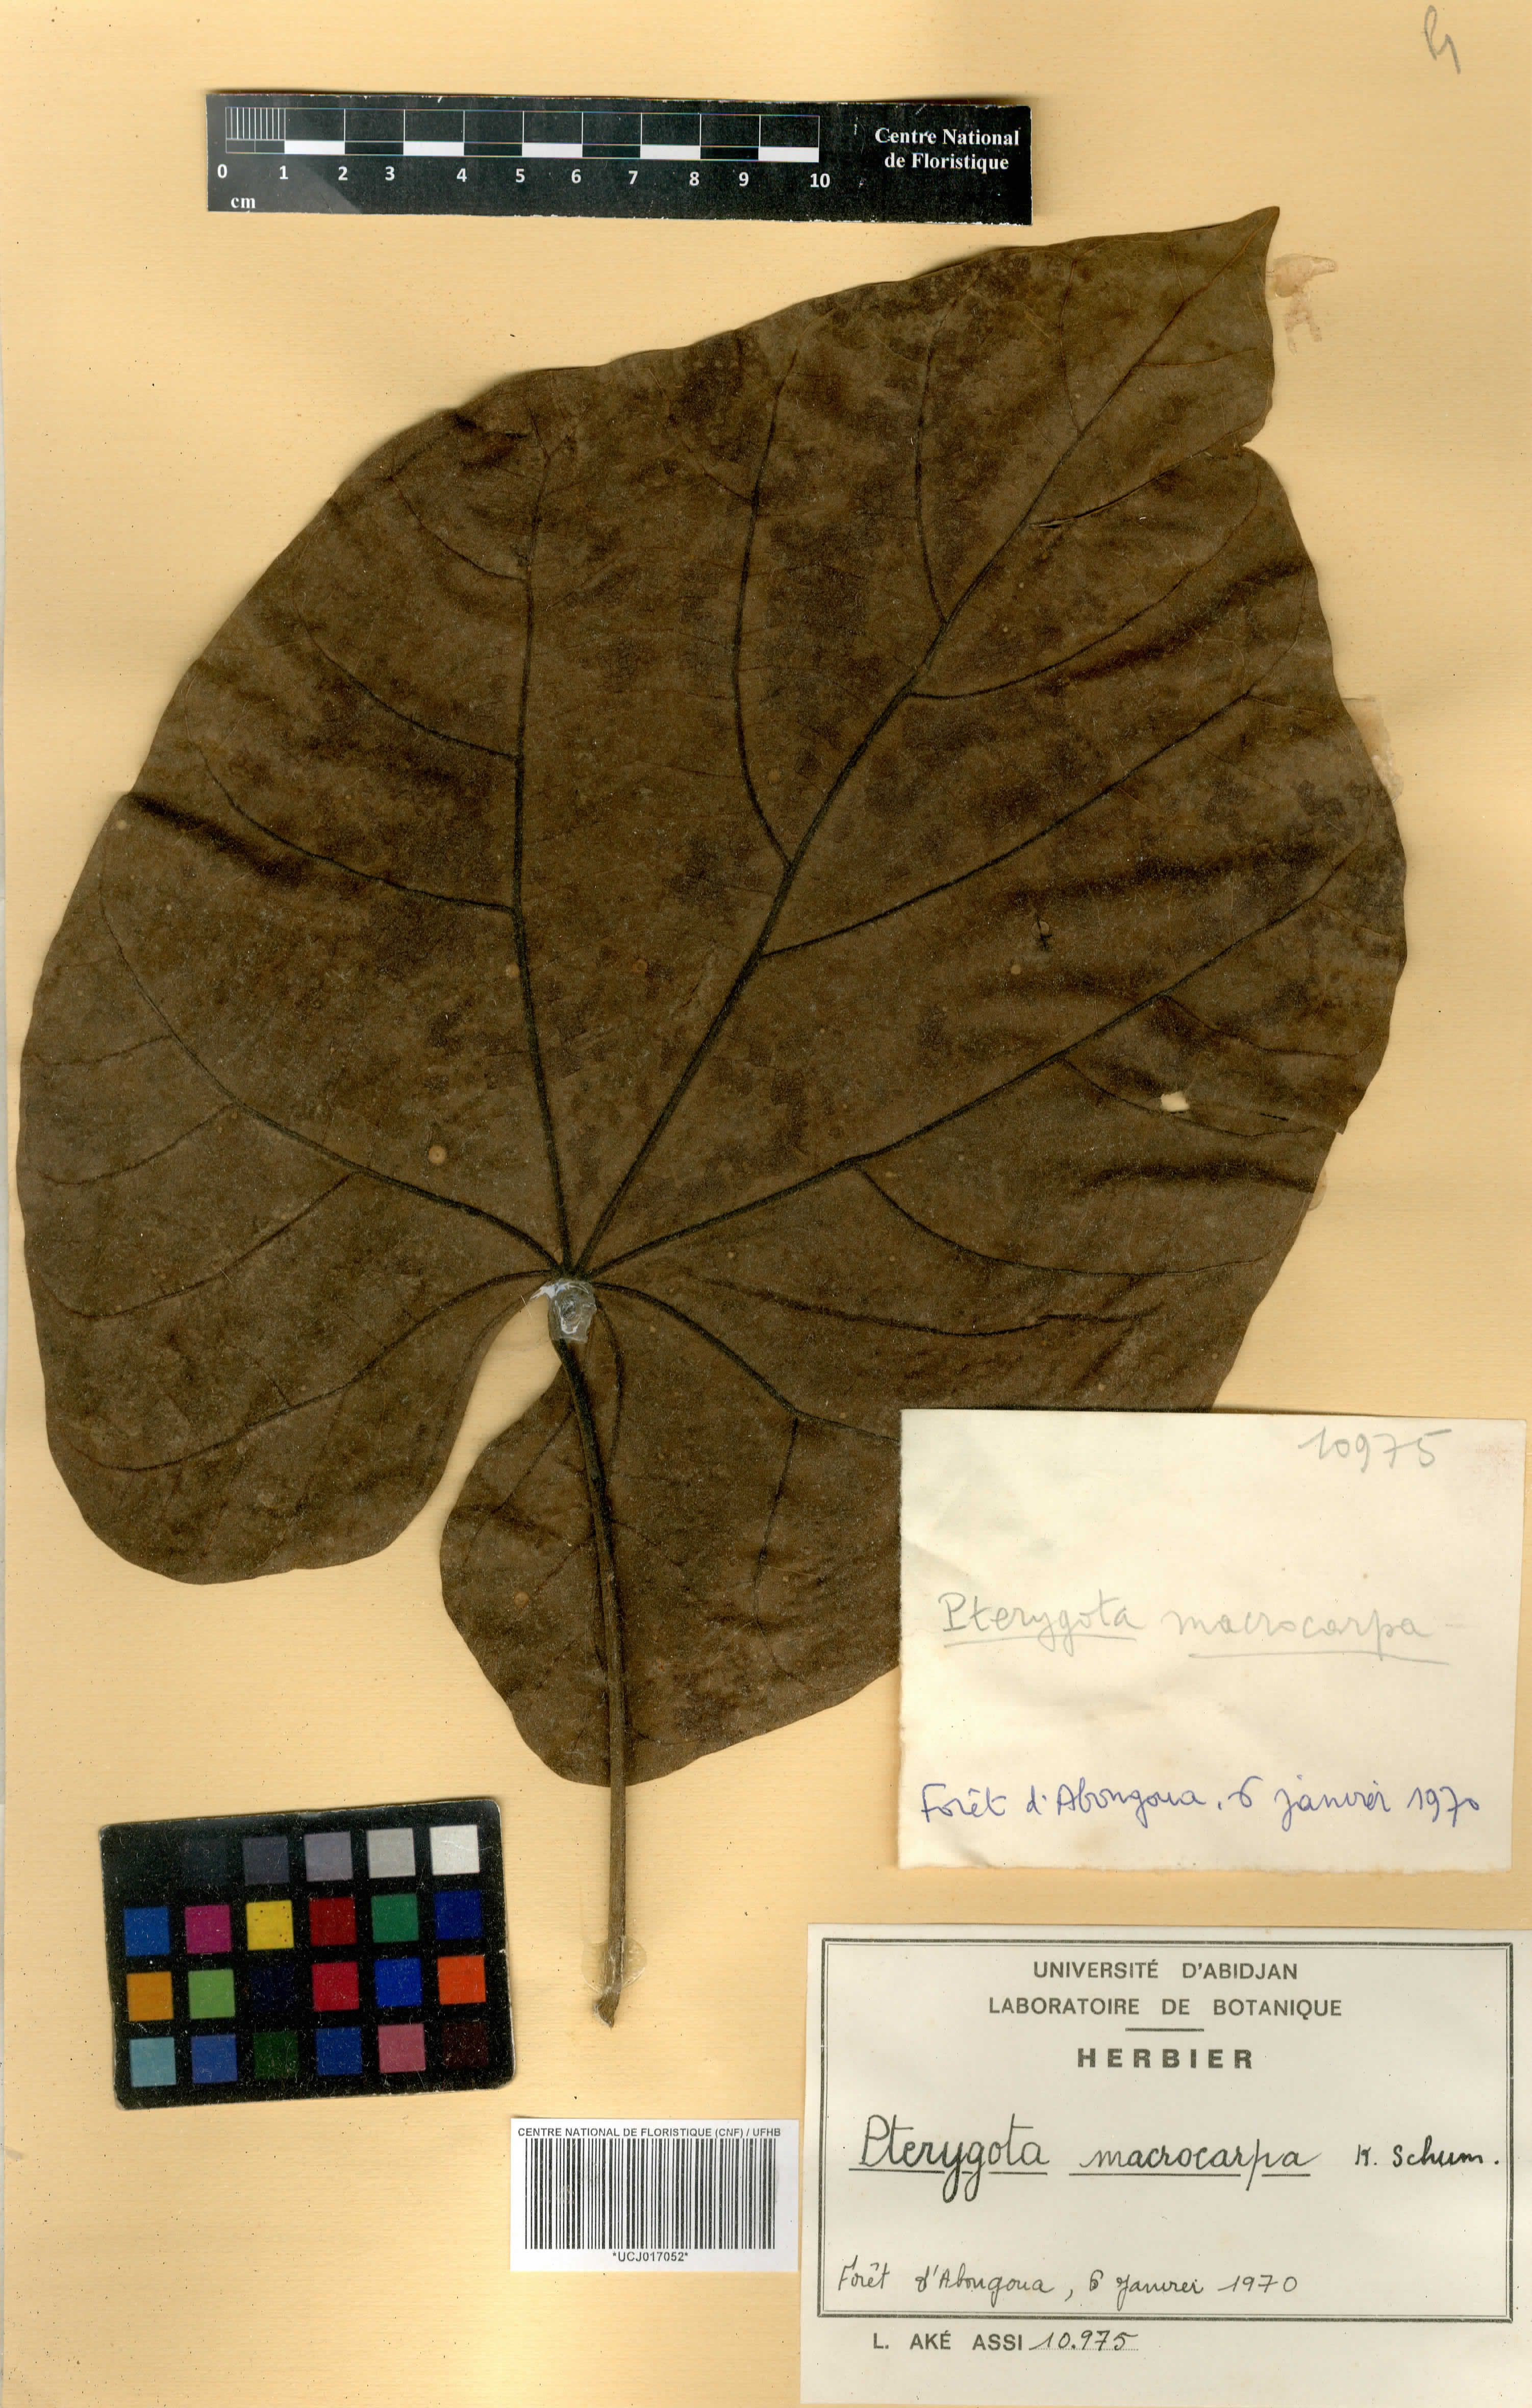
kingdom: Plantae
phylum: Tracheophyta
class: Magnoliopsida
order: Malvales
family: Malvaceae
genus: Pterygota
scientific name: Pterygota macrocarpa
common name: African pterygota
